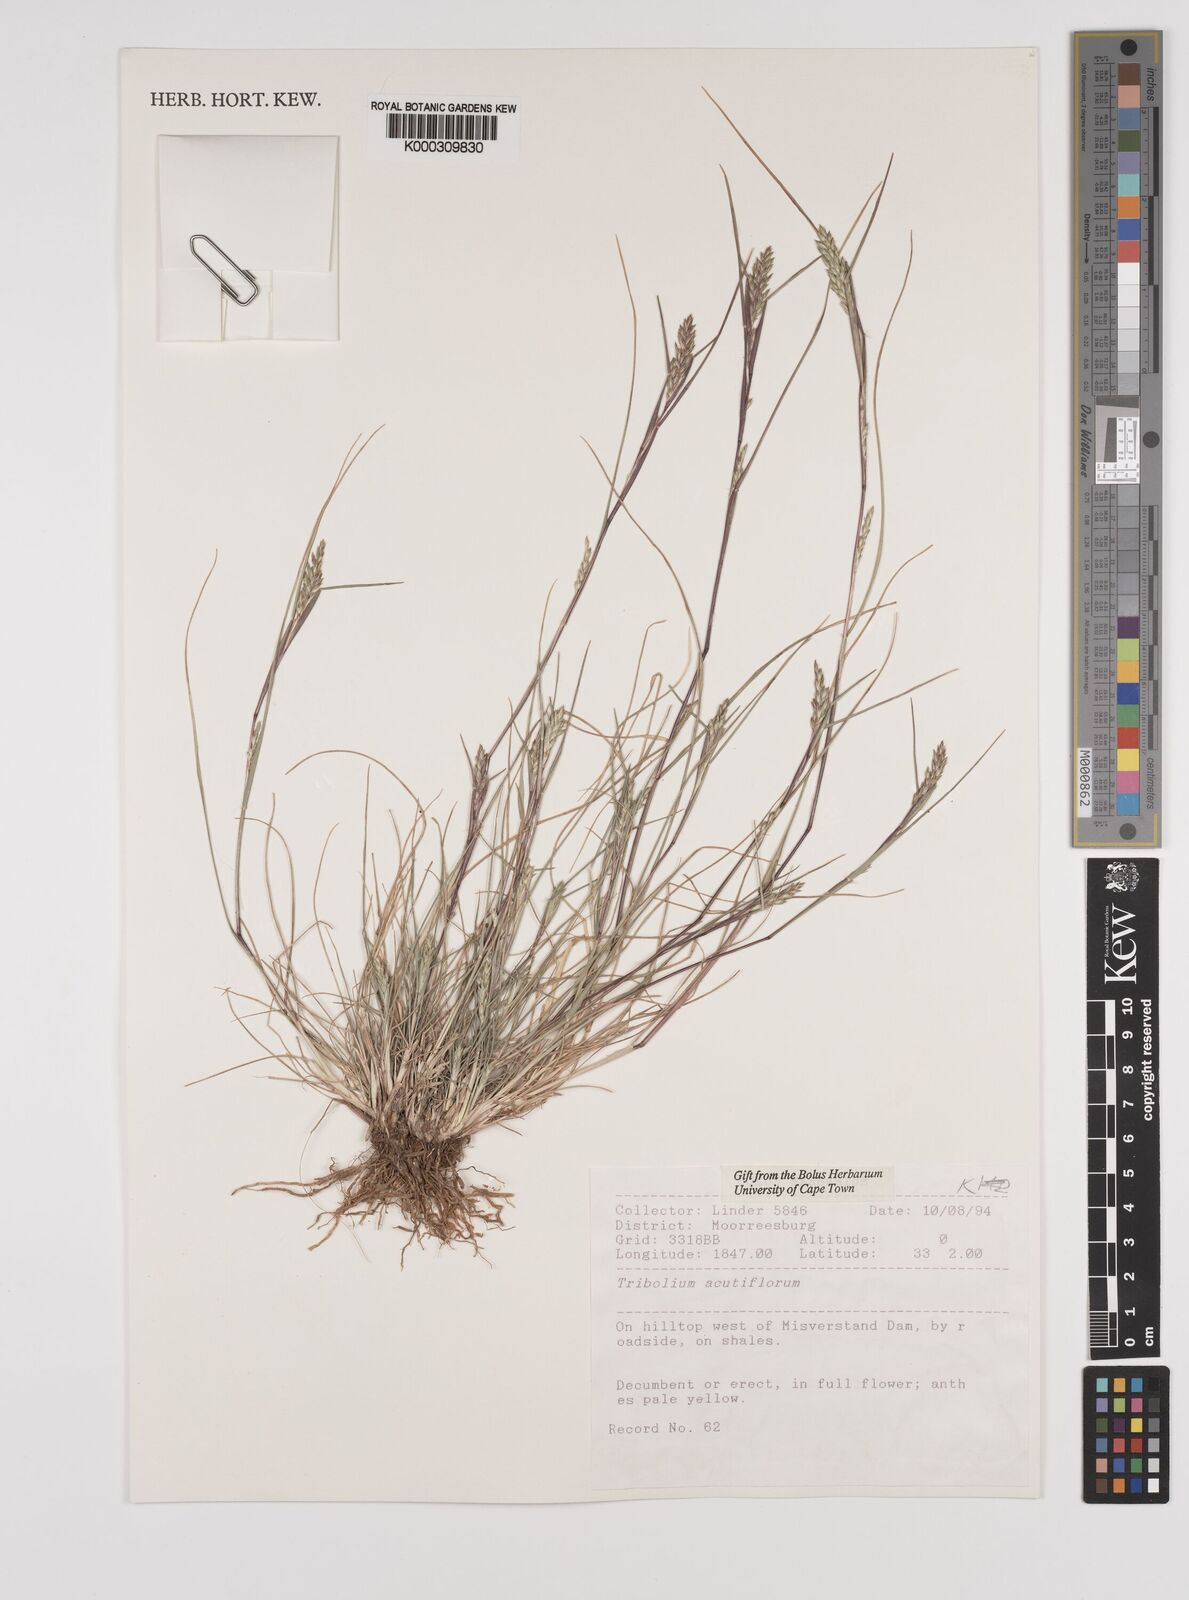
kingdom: Plantae
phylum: Tracheophyta
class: Liliopsida
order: Poales
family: Poaceae
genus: Tribolium
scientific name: Tribolium acutiflorum
